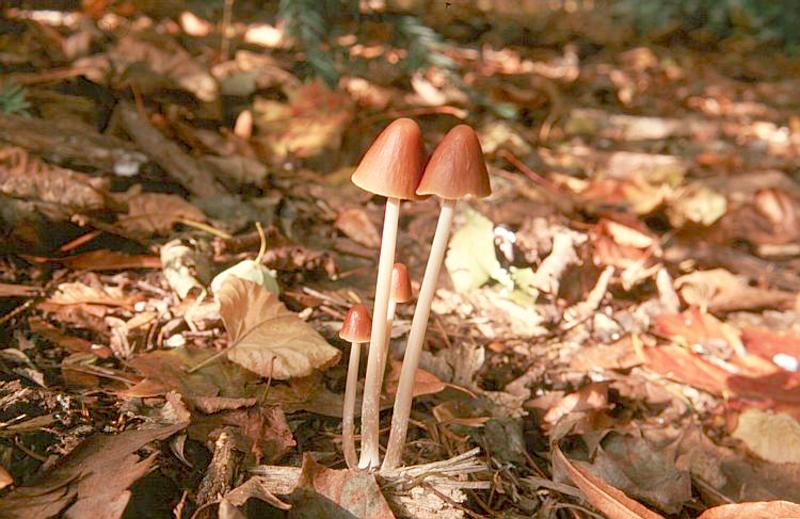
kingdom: Fungi
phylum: Basidiomycota
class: Agaricomycetes
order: Agaricales
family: Psathyrellaceae
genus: Parasola
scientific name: Parasola conopilea
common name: Conical brittlestem
